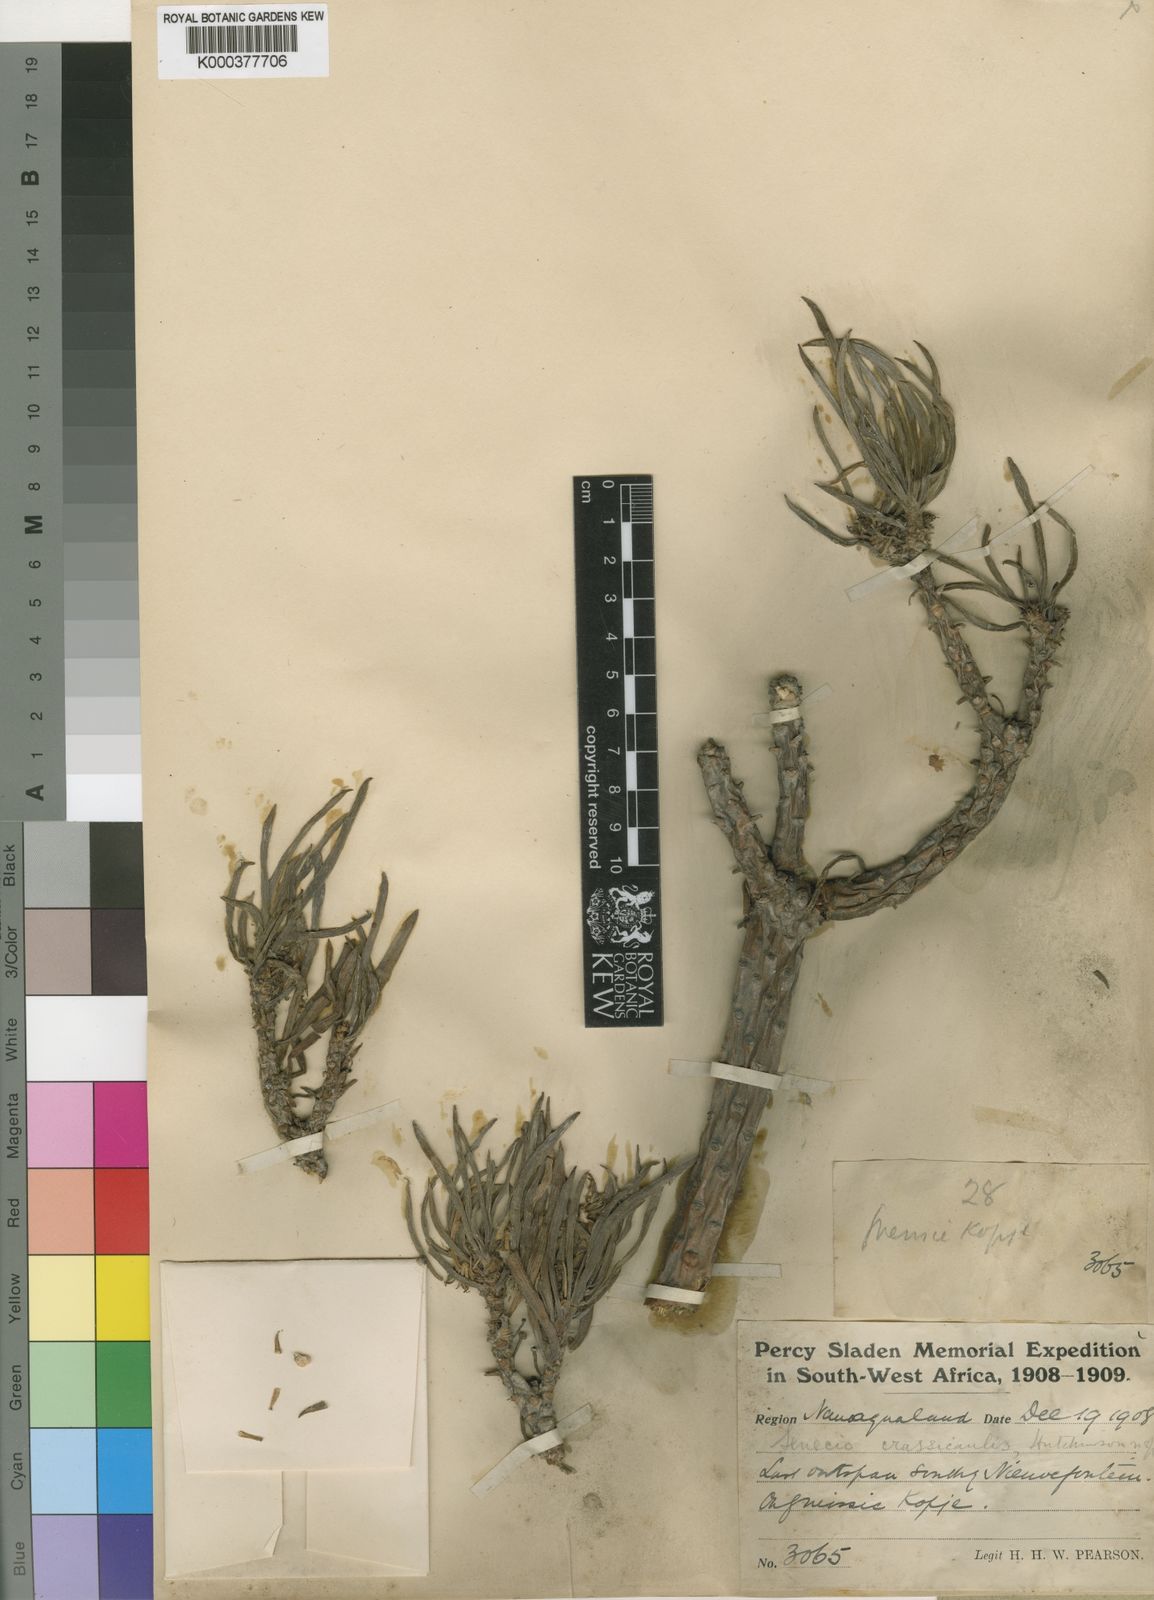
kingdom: Plantae
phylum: Tracheophyta
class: Magnoliopsida
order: Asterales
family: Asteraceae
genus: Kleinia
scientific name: Kleinia
